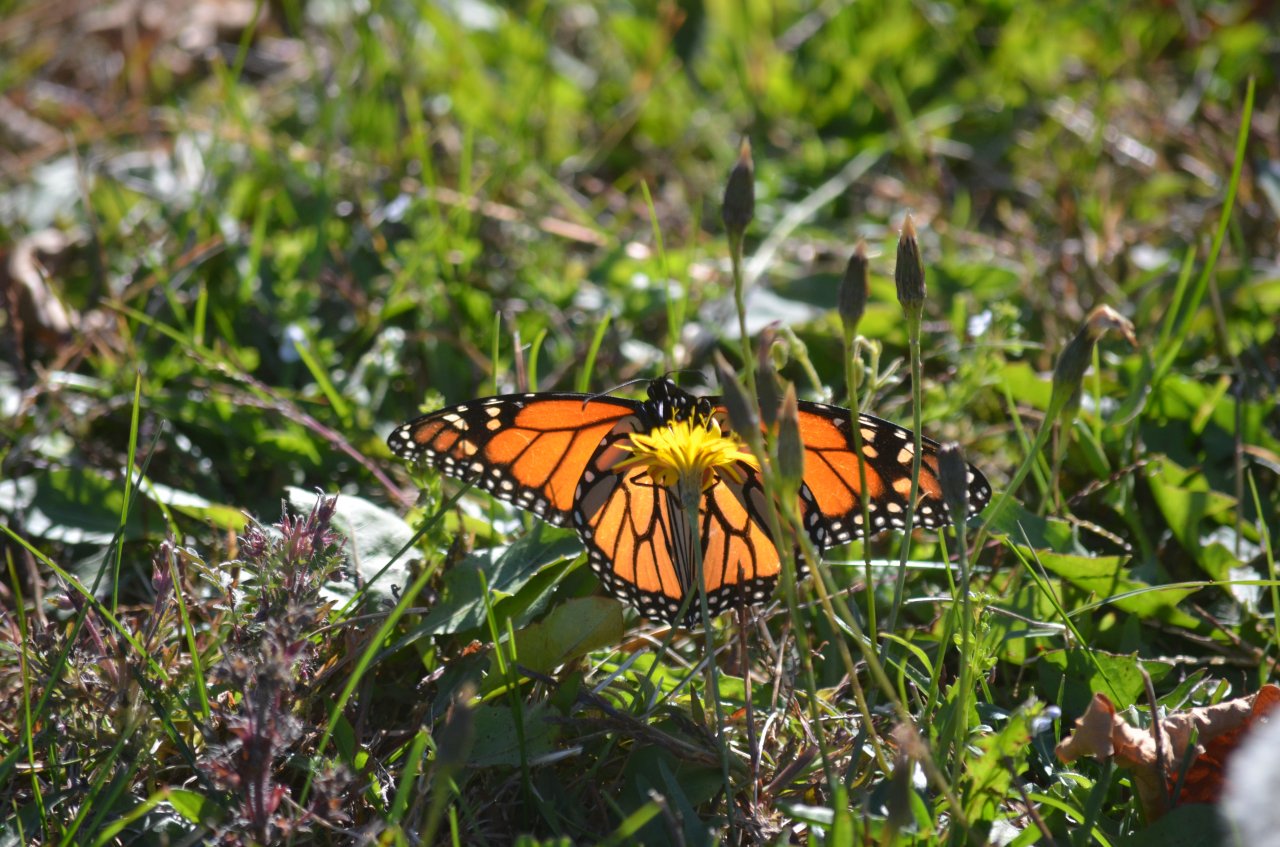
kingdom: Animalia
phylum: Arthropoda
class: Insecta
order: Lepidoptera
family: Nymphalidae
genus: Danaus
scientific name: Danaus plexippus
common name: Monarch
